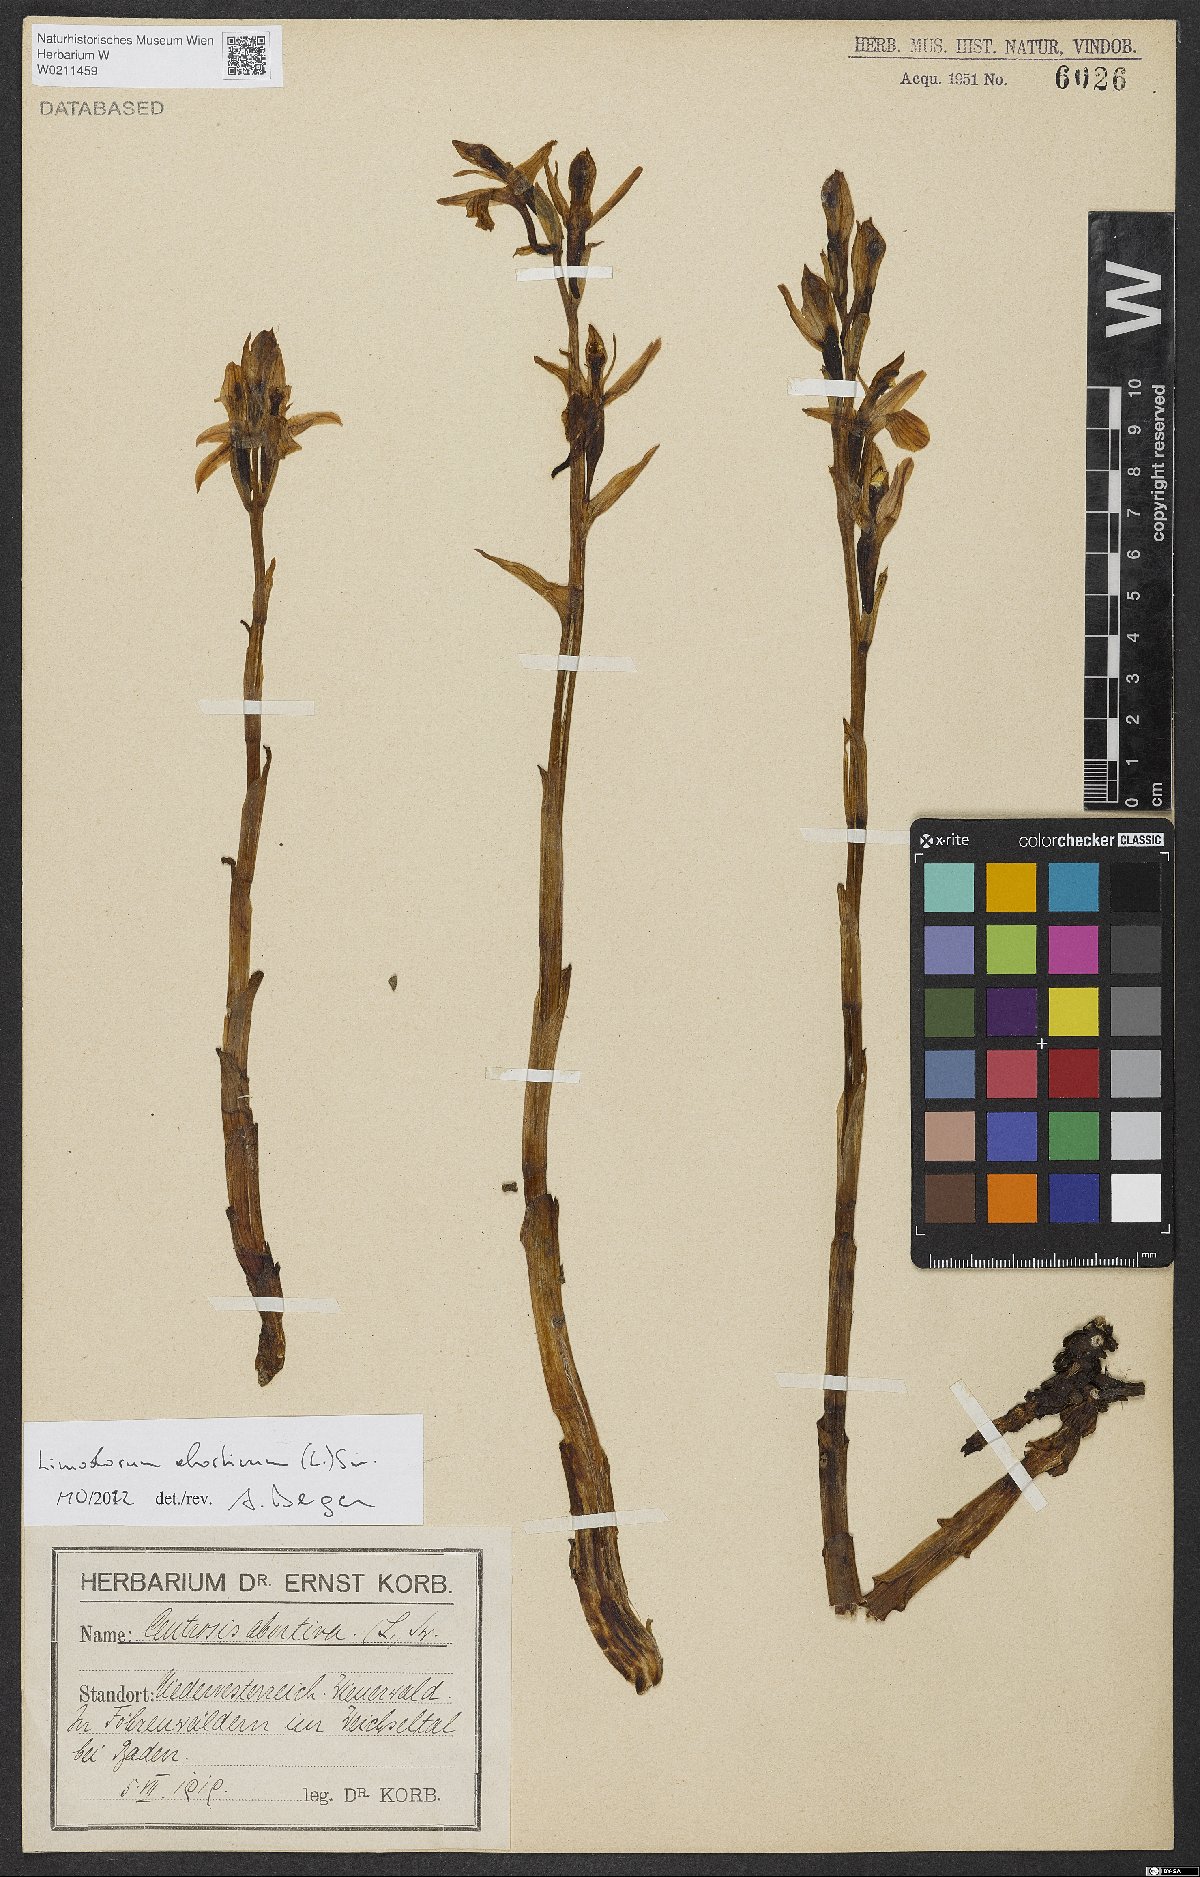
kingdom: Plantae
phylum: Tracheophyta
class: Liliopsida
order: Asparagales
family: Orchidaceae
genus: Limodorum
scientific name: Limodorum abortivum
